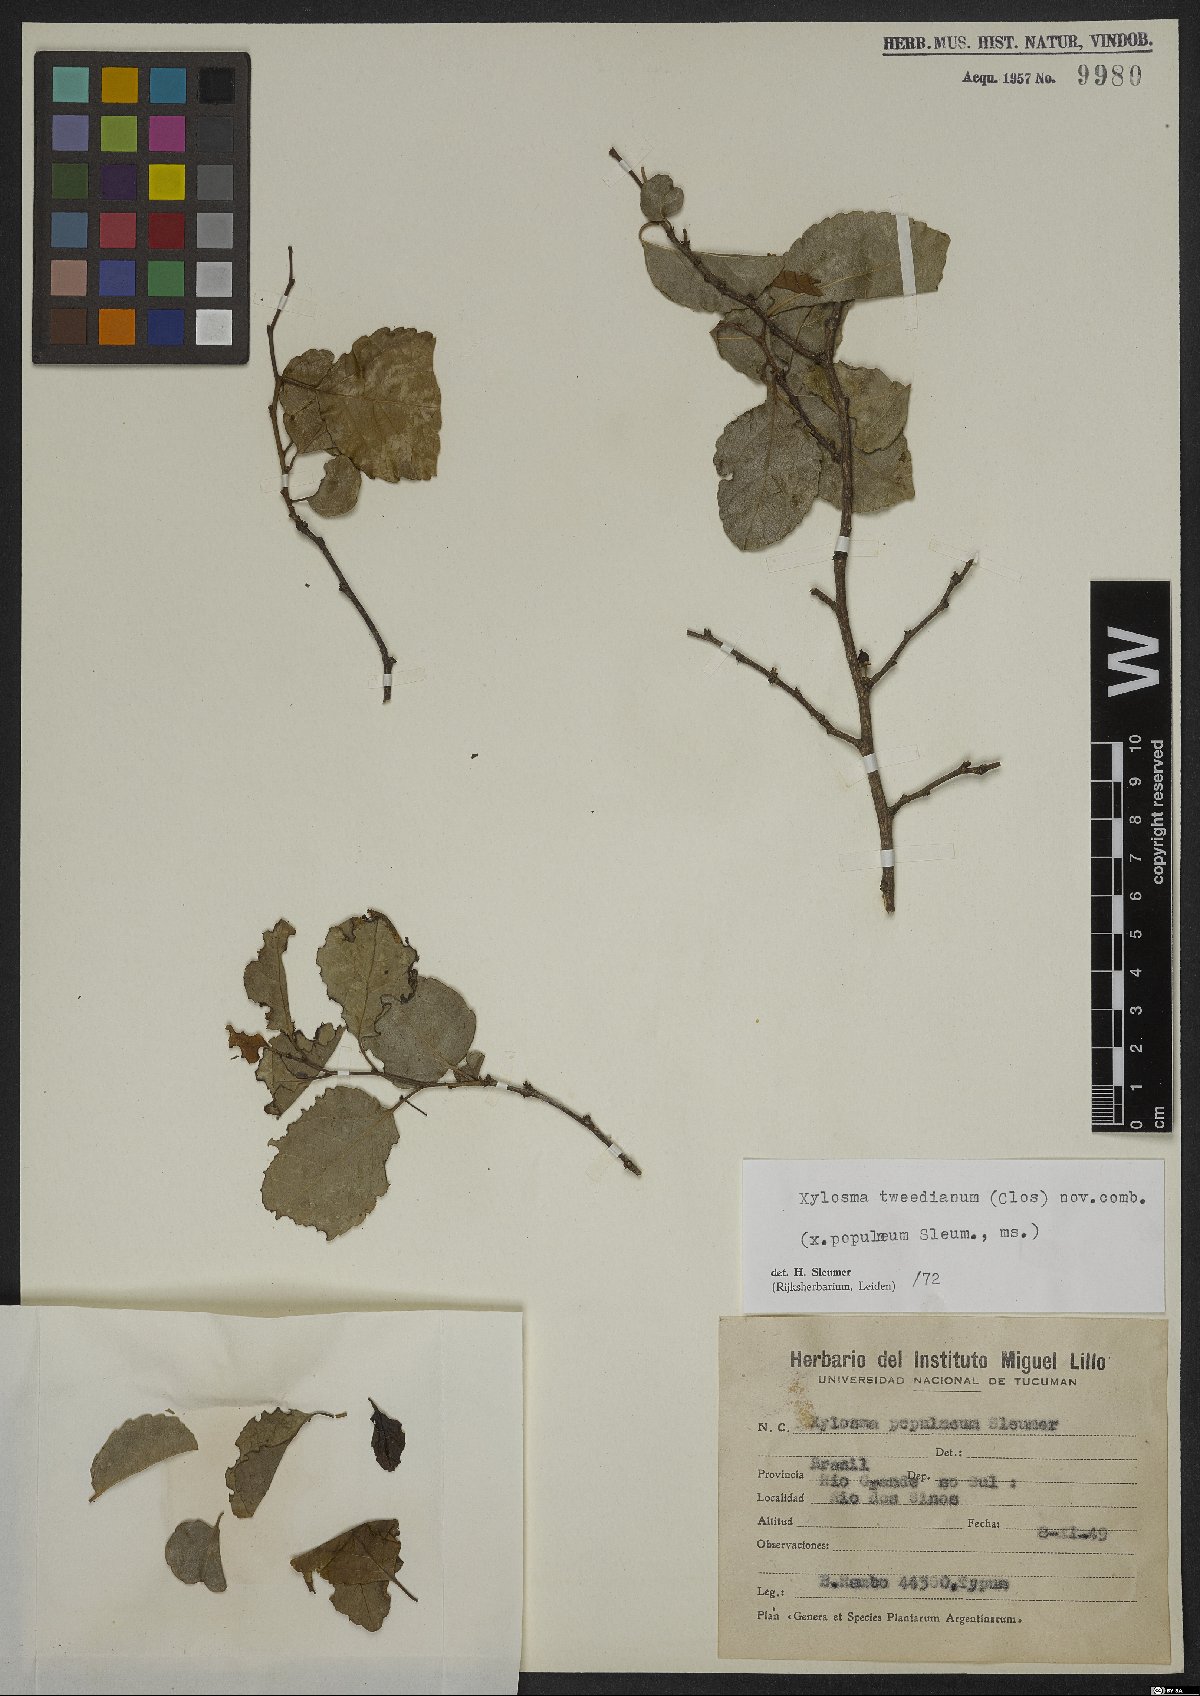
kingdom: Plantae
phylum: Tracheophyta
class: Magnoliopsida
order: Malpighiales
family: Salicaceae
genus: Xylosma
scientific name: Xylosma tweediana
